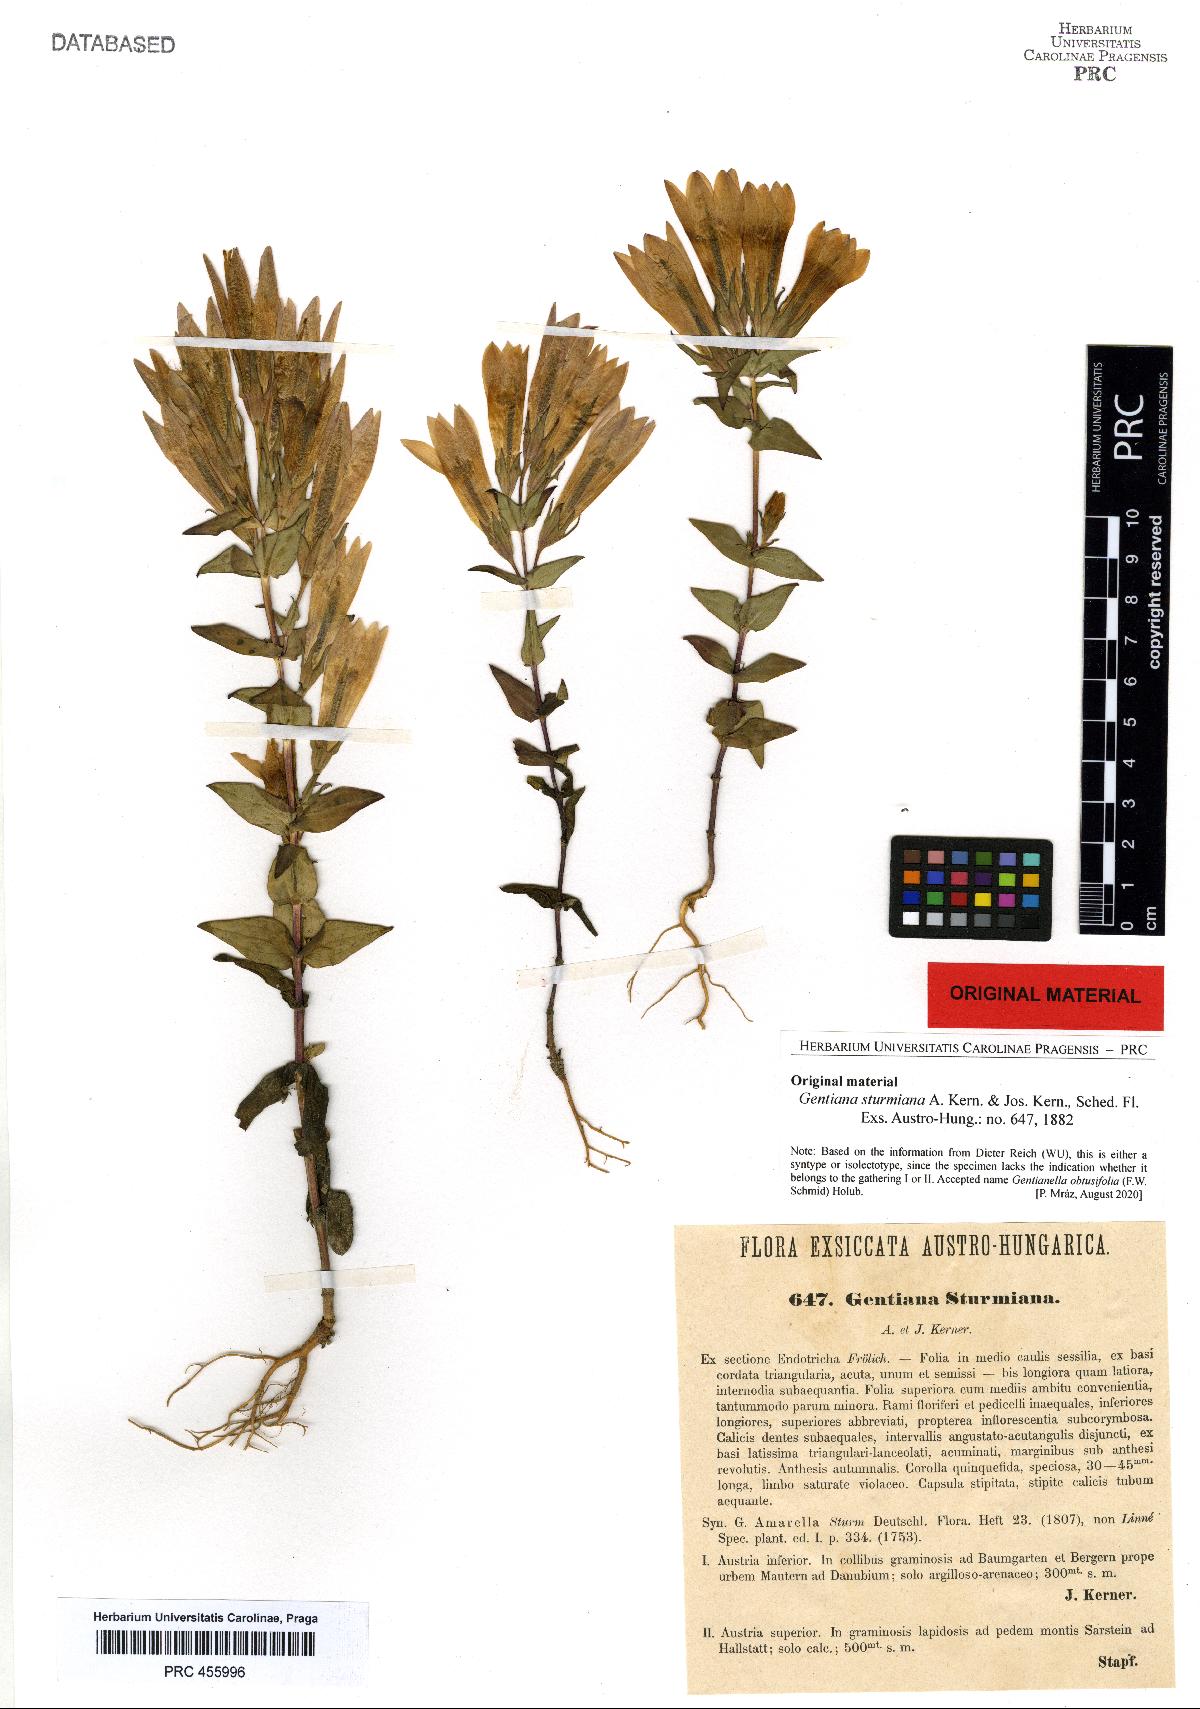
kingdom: Plantae
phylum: Tracheophyta
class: Magnoliopsida
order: Gentianales
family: Gentianaceae
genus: Gentianella
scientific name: Gentianella obtusifolia
